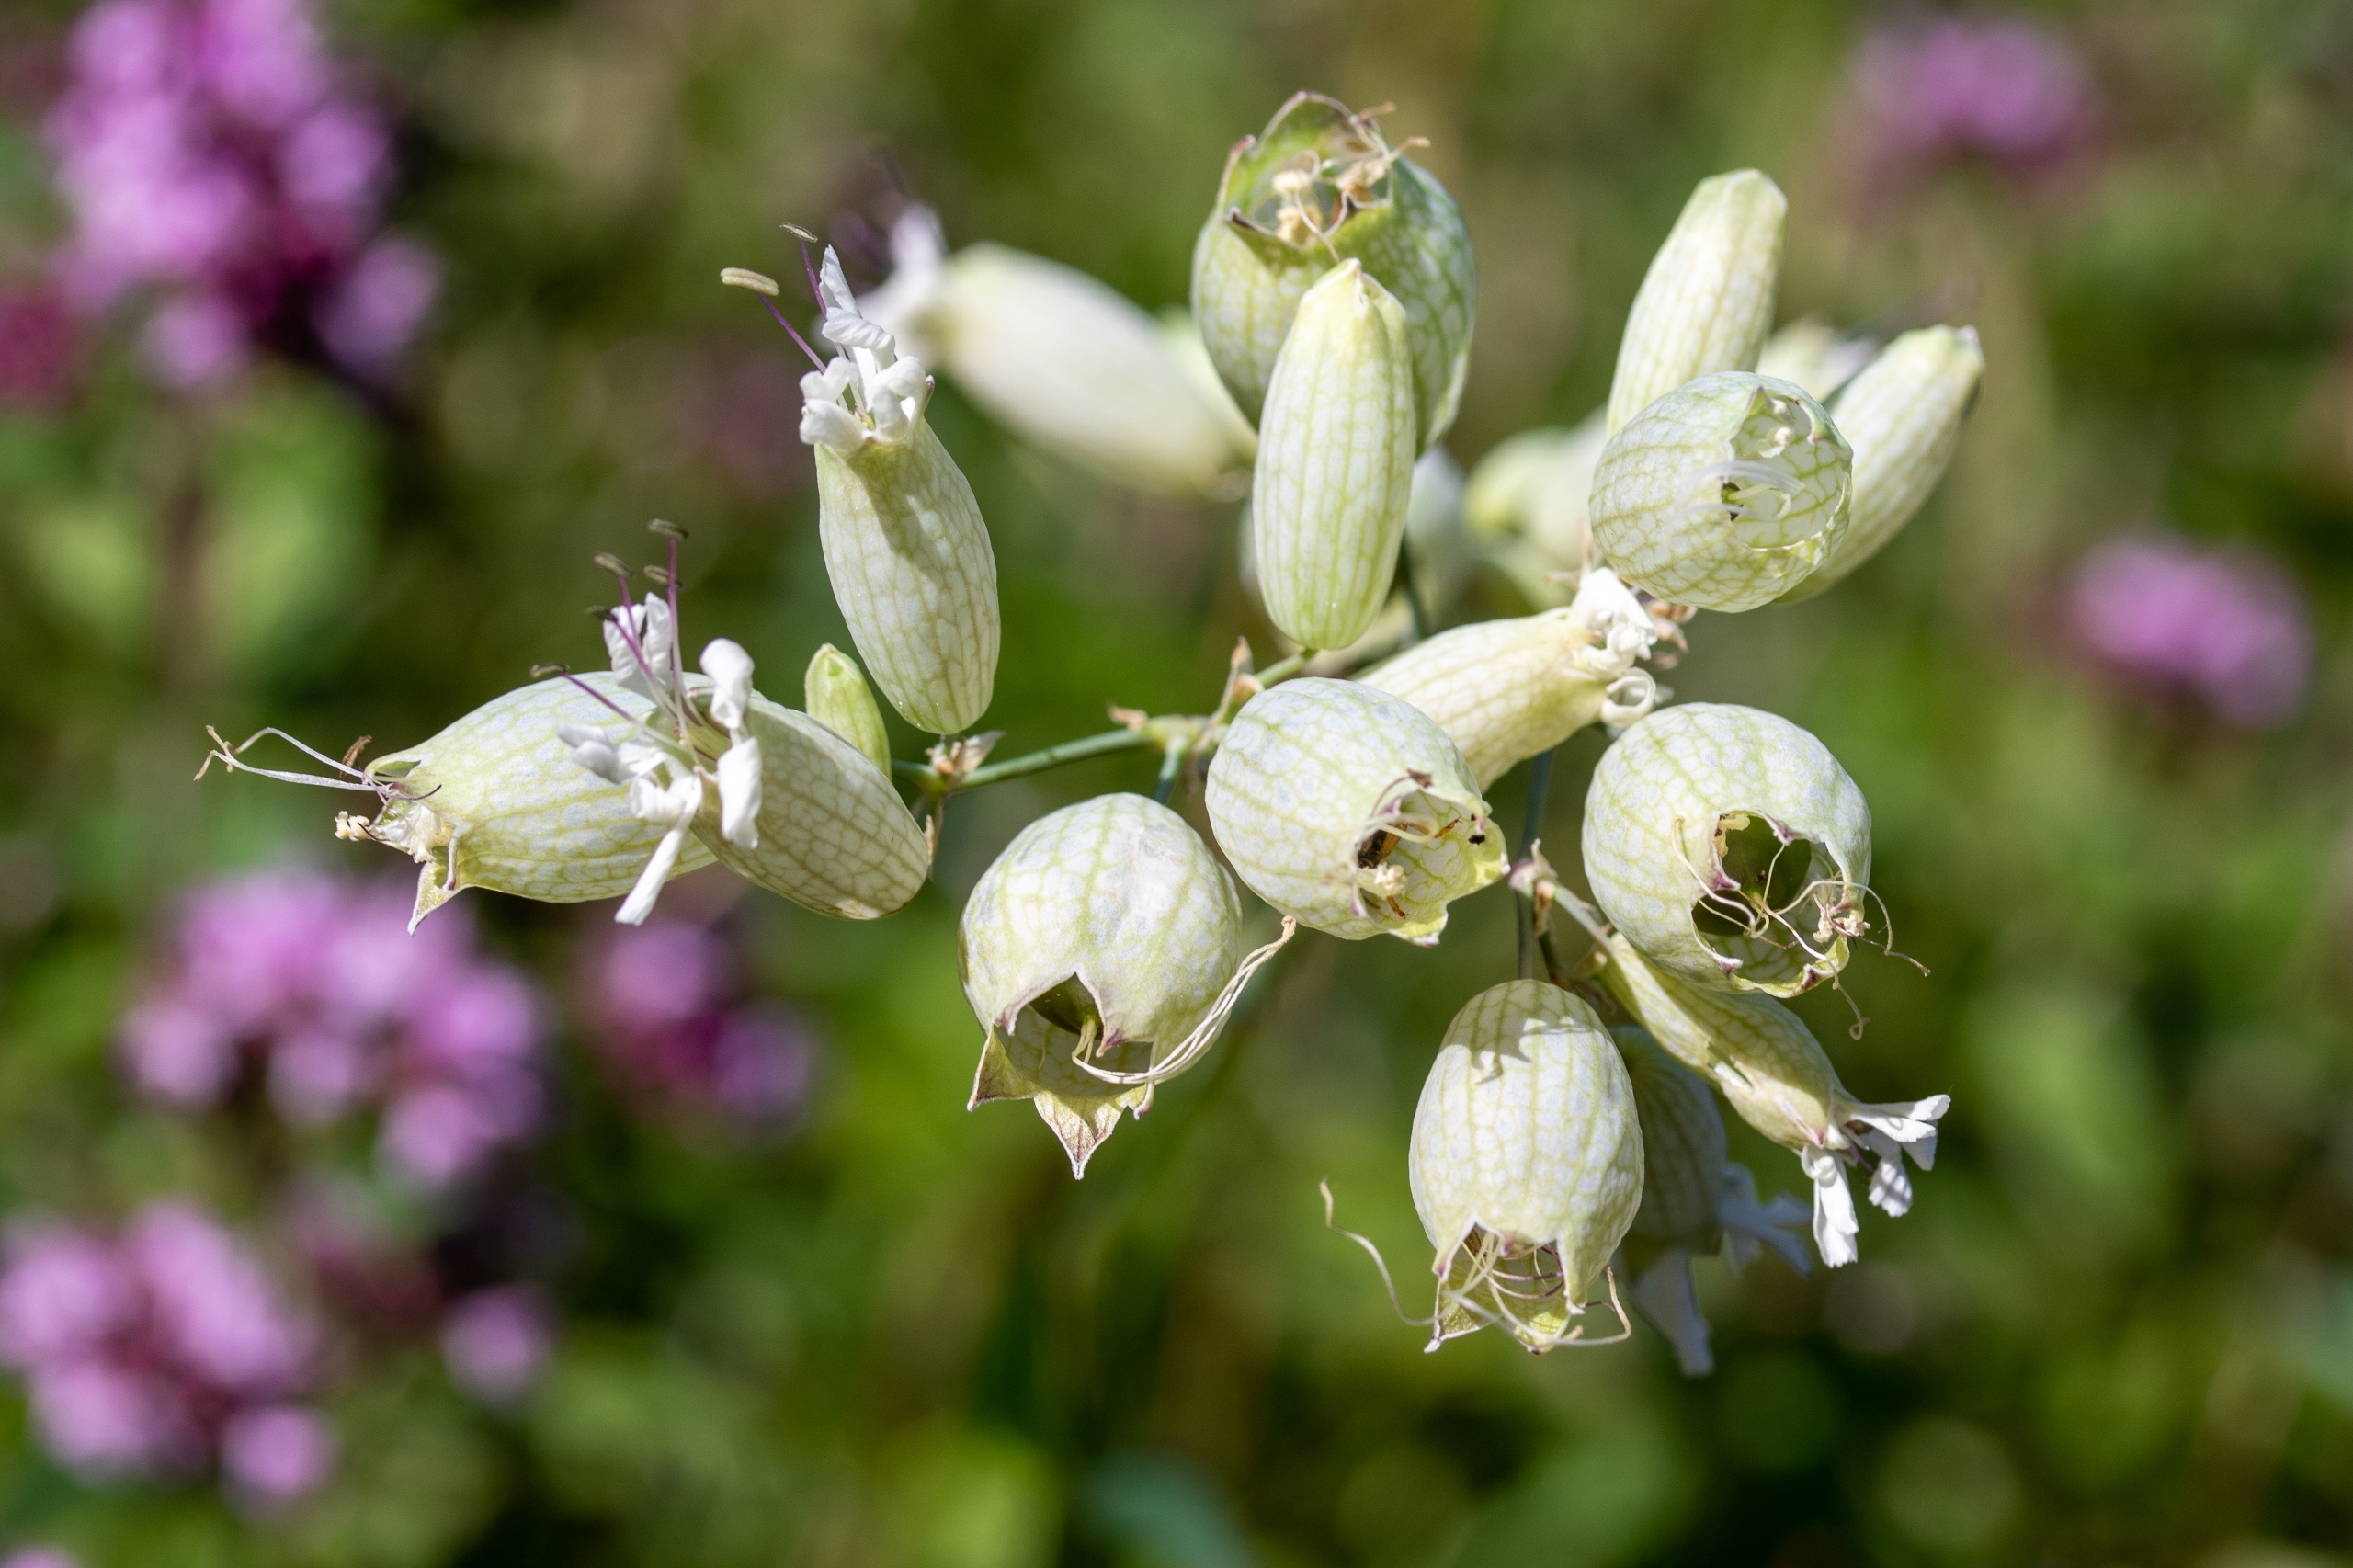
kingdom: Plantae
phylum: Tracheophyta
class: Magnoliopsida
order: Caryophyllales
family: Caryophyllaceae
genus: Silene
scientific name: Silene vulgaris
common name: Blæresmælde
